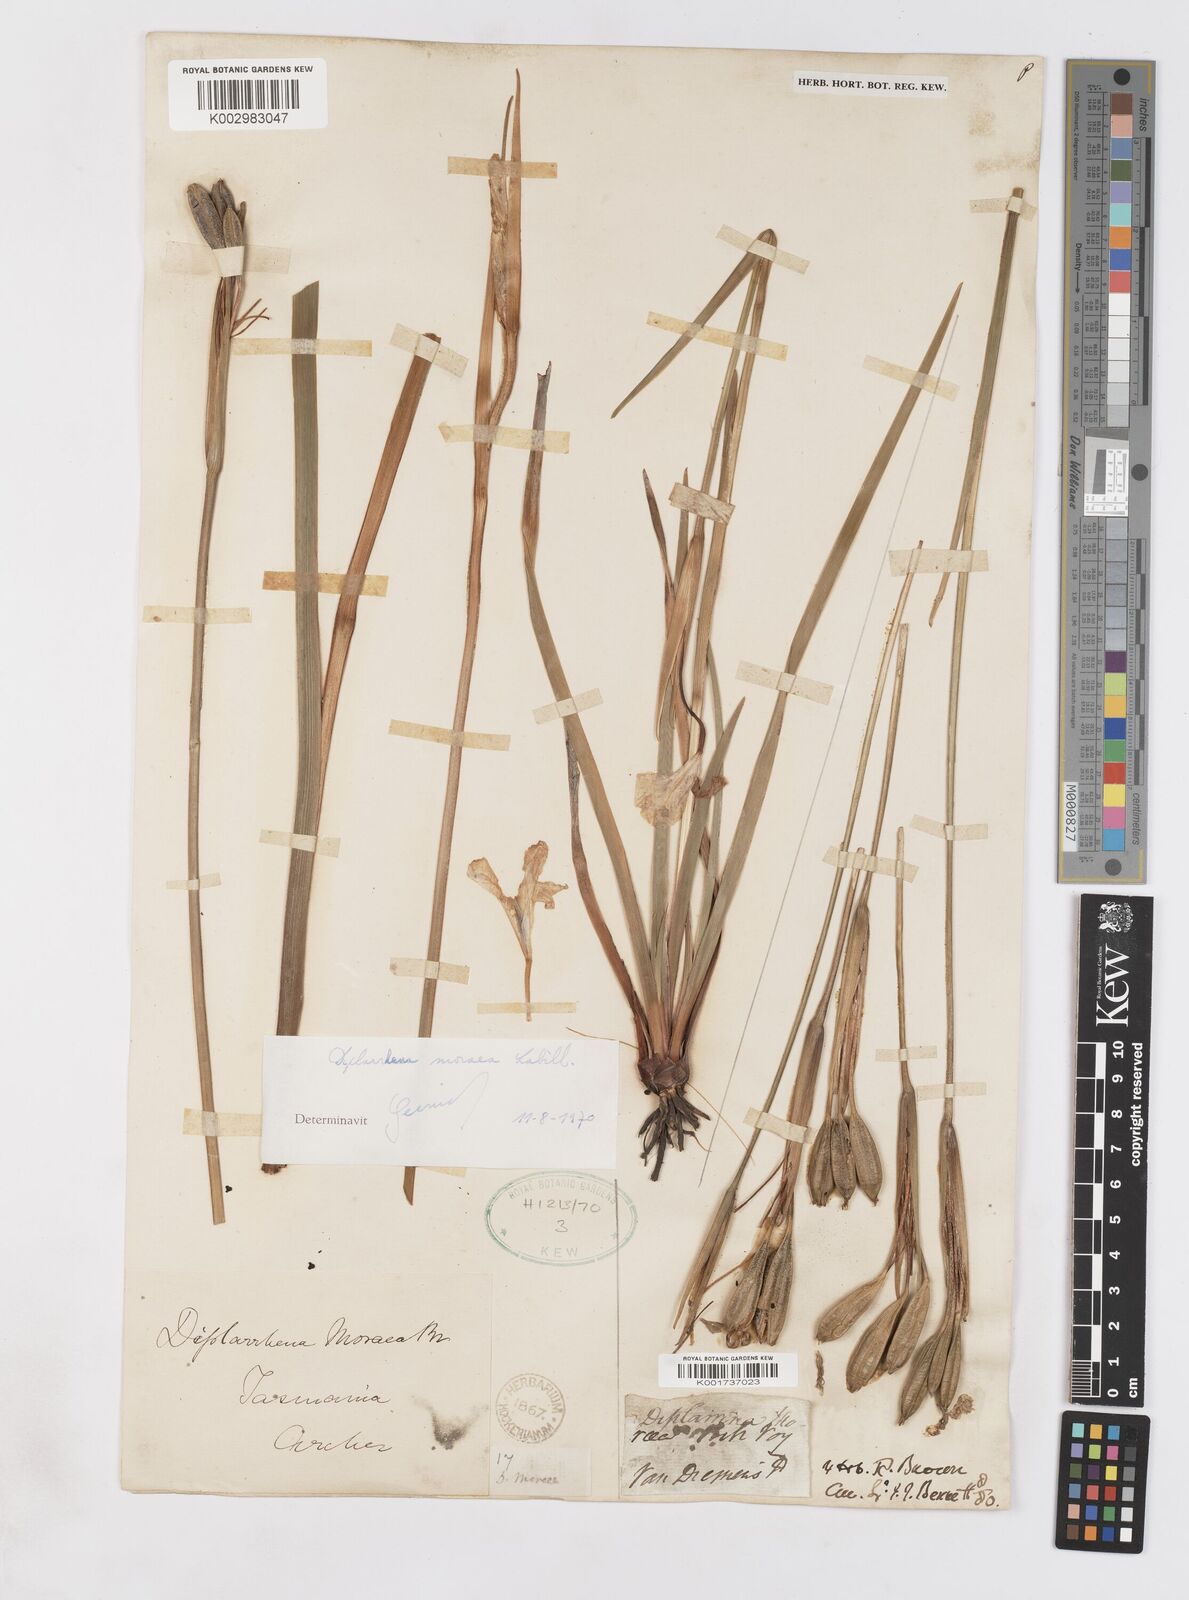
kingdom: Plantae
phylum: Tracheophyta
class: Liliopsida
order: Asparagales
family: Iridaceae
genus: Diplarrena
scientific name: Diplarrena moraea
